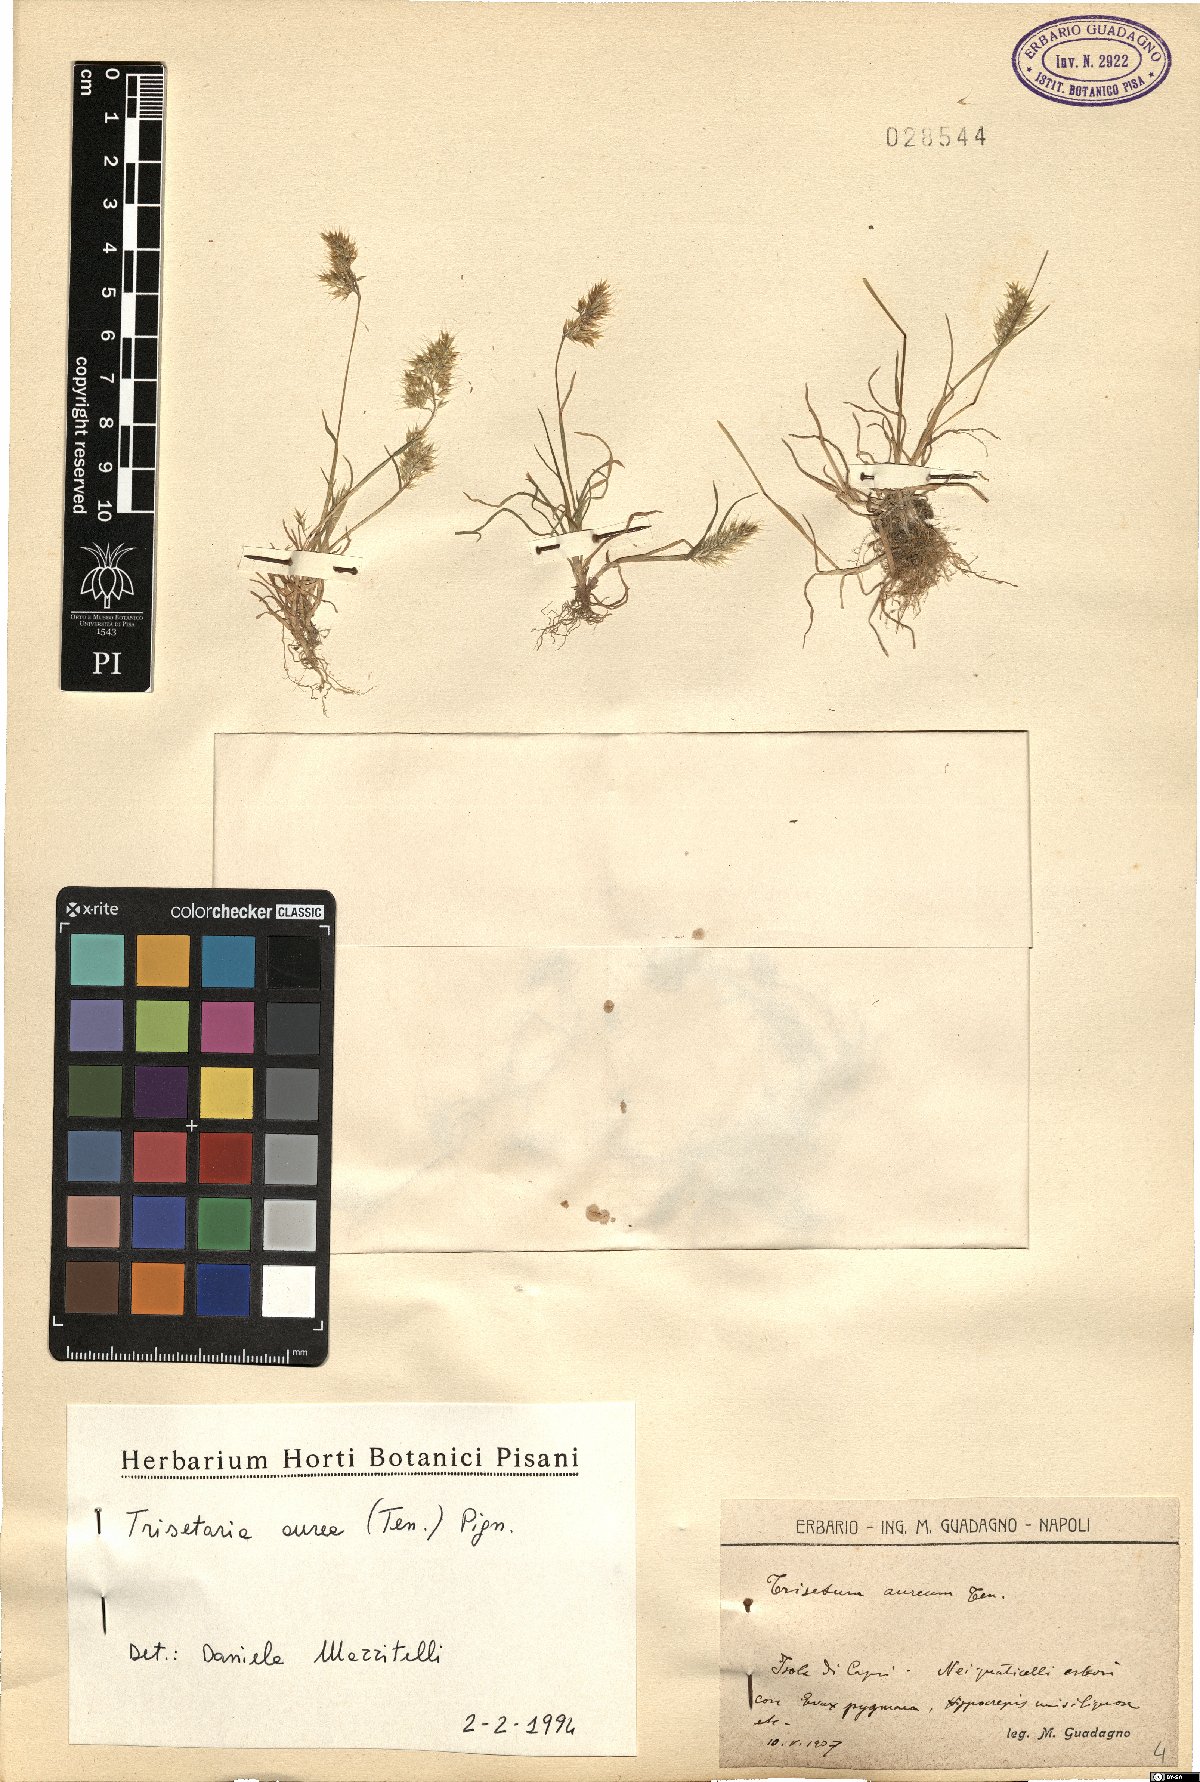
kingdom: Plantae
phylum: Tracheophyta
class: Liliopsida
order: Poales
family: Poaceae
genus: Trisetaria
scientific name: Trisetaria aurea
